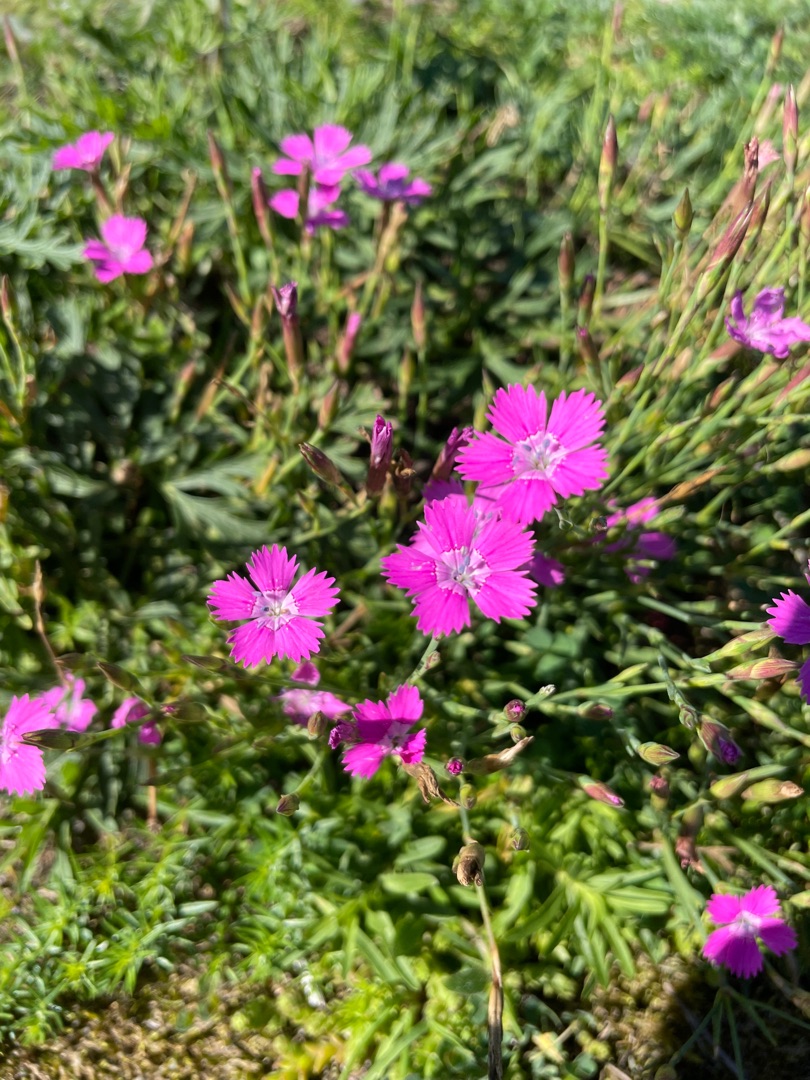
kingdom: Plantae
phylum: Tracheophyta
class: Magnoliopsida
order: Caryophyllales
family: Caryophyllaceae
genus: Dianthus
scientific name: Dianthus deltoides
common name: Bakke-nellike
